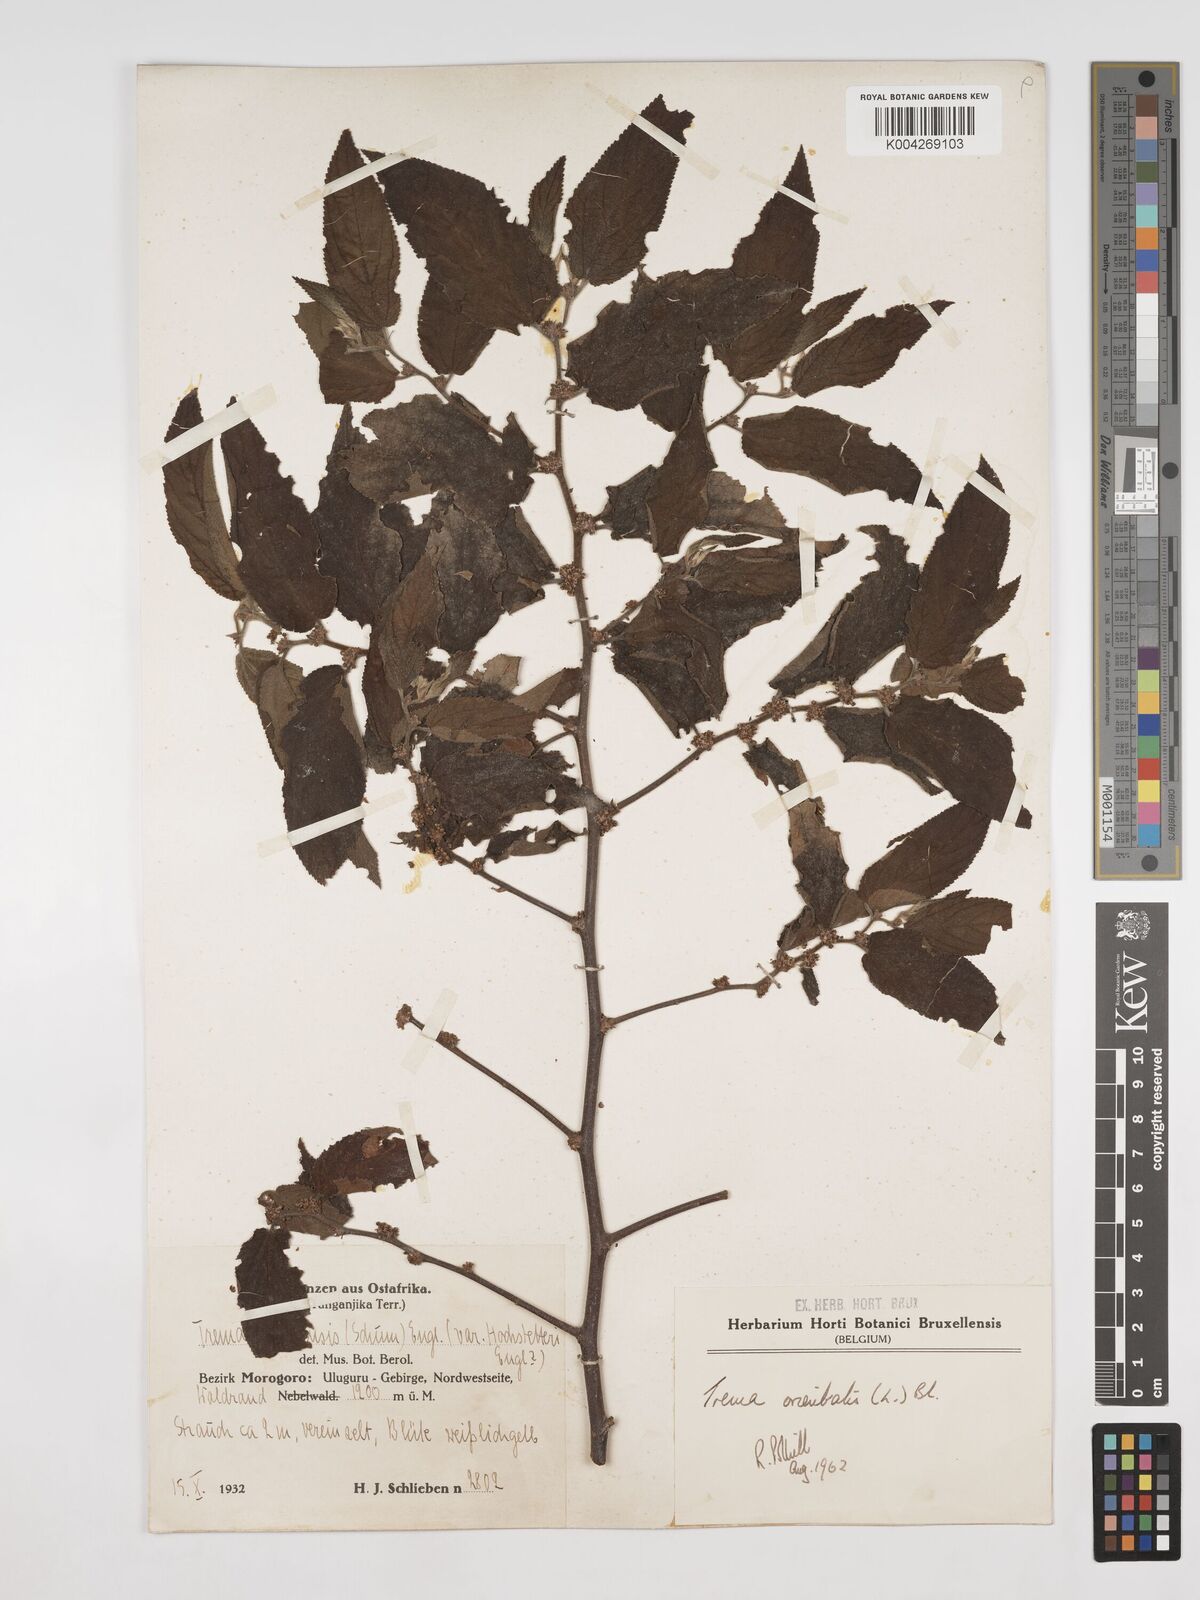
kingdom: Plantae
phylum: Tracheophyta
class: Magnoliopsida
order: Rosales
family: Cannabaceae
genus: Trema
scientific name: Trema orientale
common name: Indian charcoal tree
